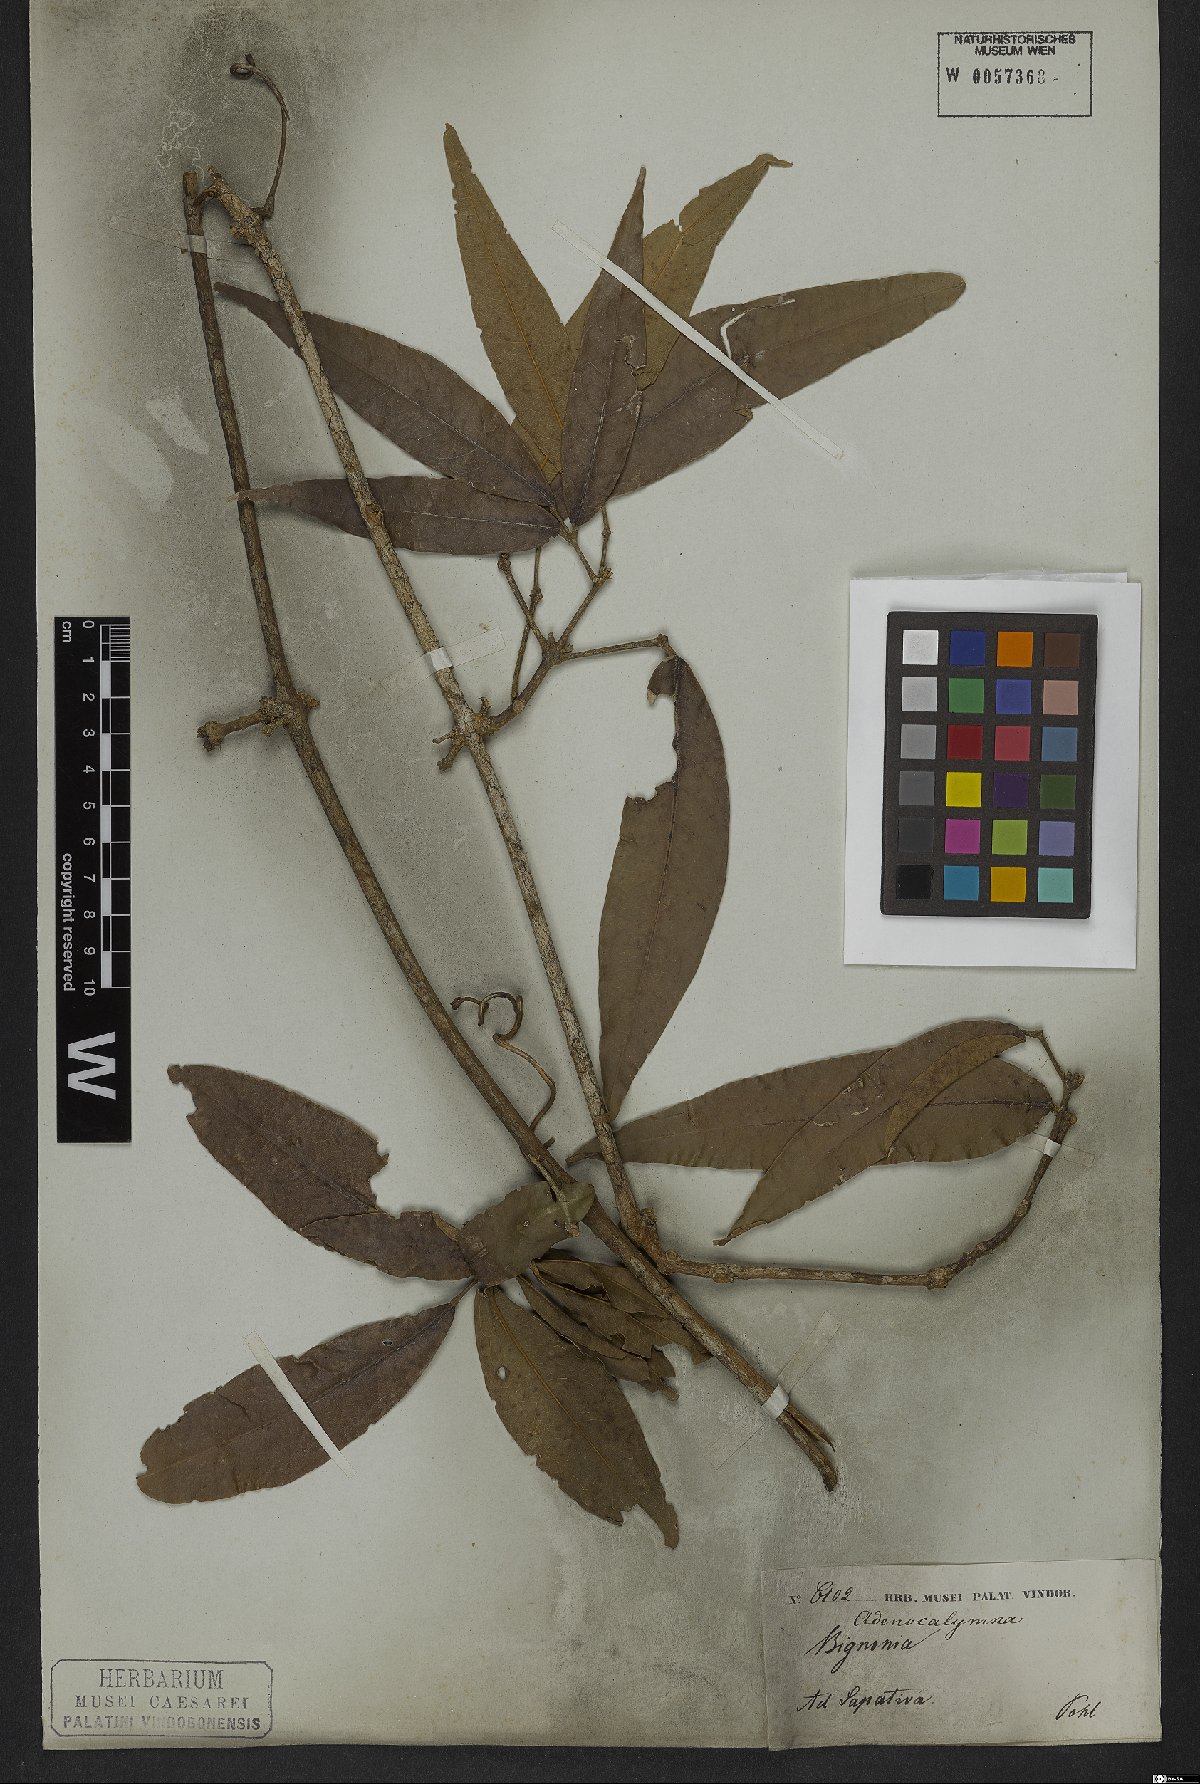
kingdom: Plantae
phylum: Tracheophyta
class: Magnoliopsida
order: Lamiales
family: Bignoniaceae
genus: Adenocalymma
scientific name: Adenocalymma trifoliatum
